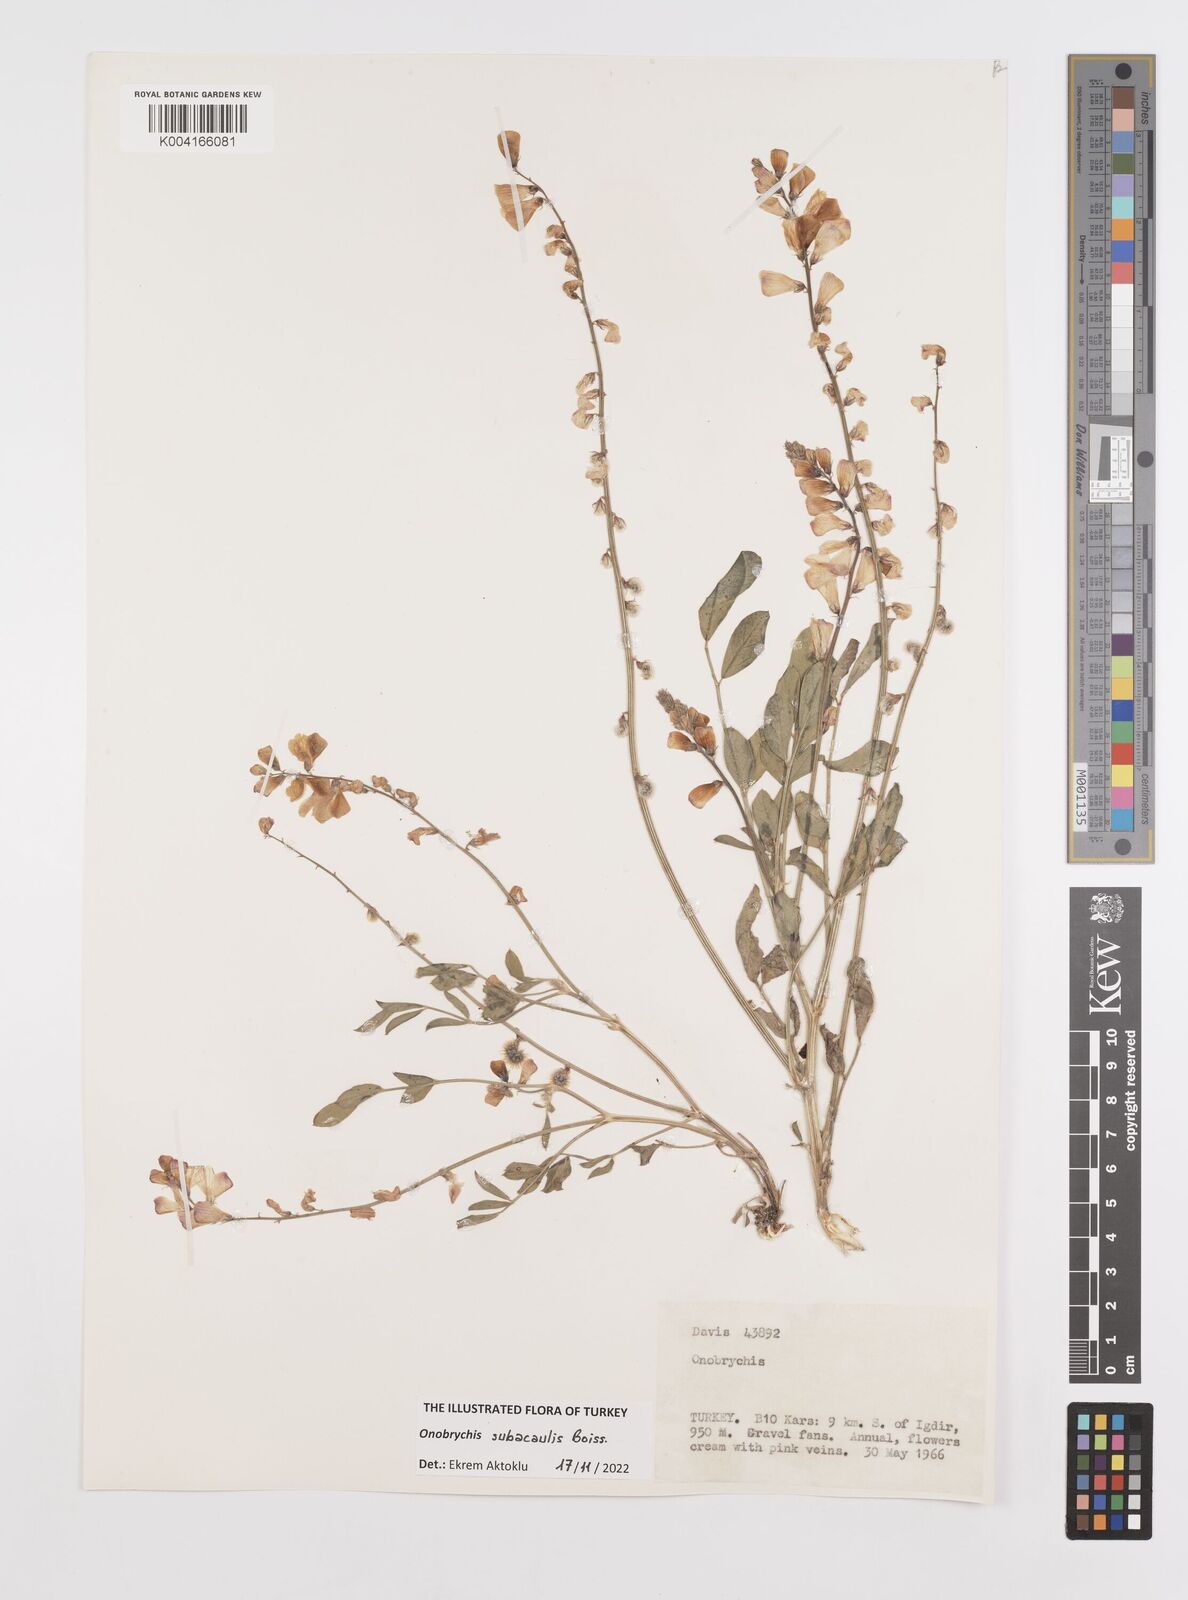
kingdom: Plantae
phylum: Tracheophyta
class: Magnoliopsida
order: Fabales
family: Fabaceae
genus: Onobrychis
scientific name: Onobrychis subacaulis
